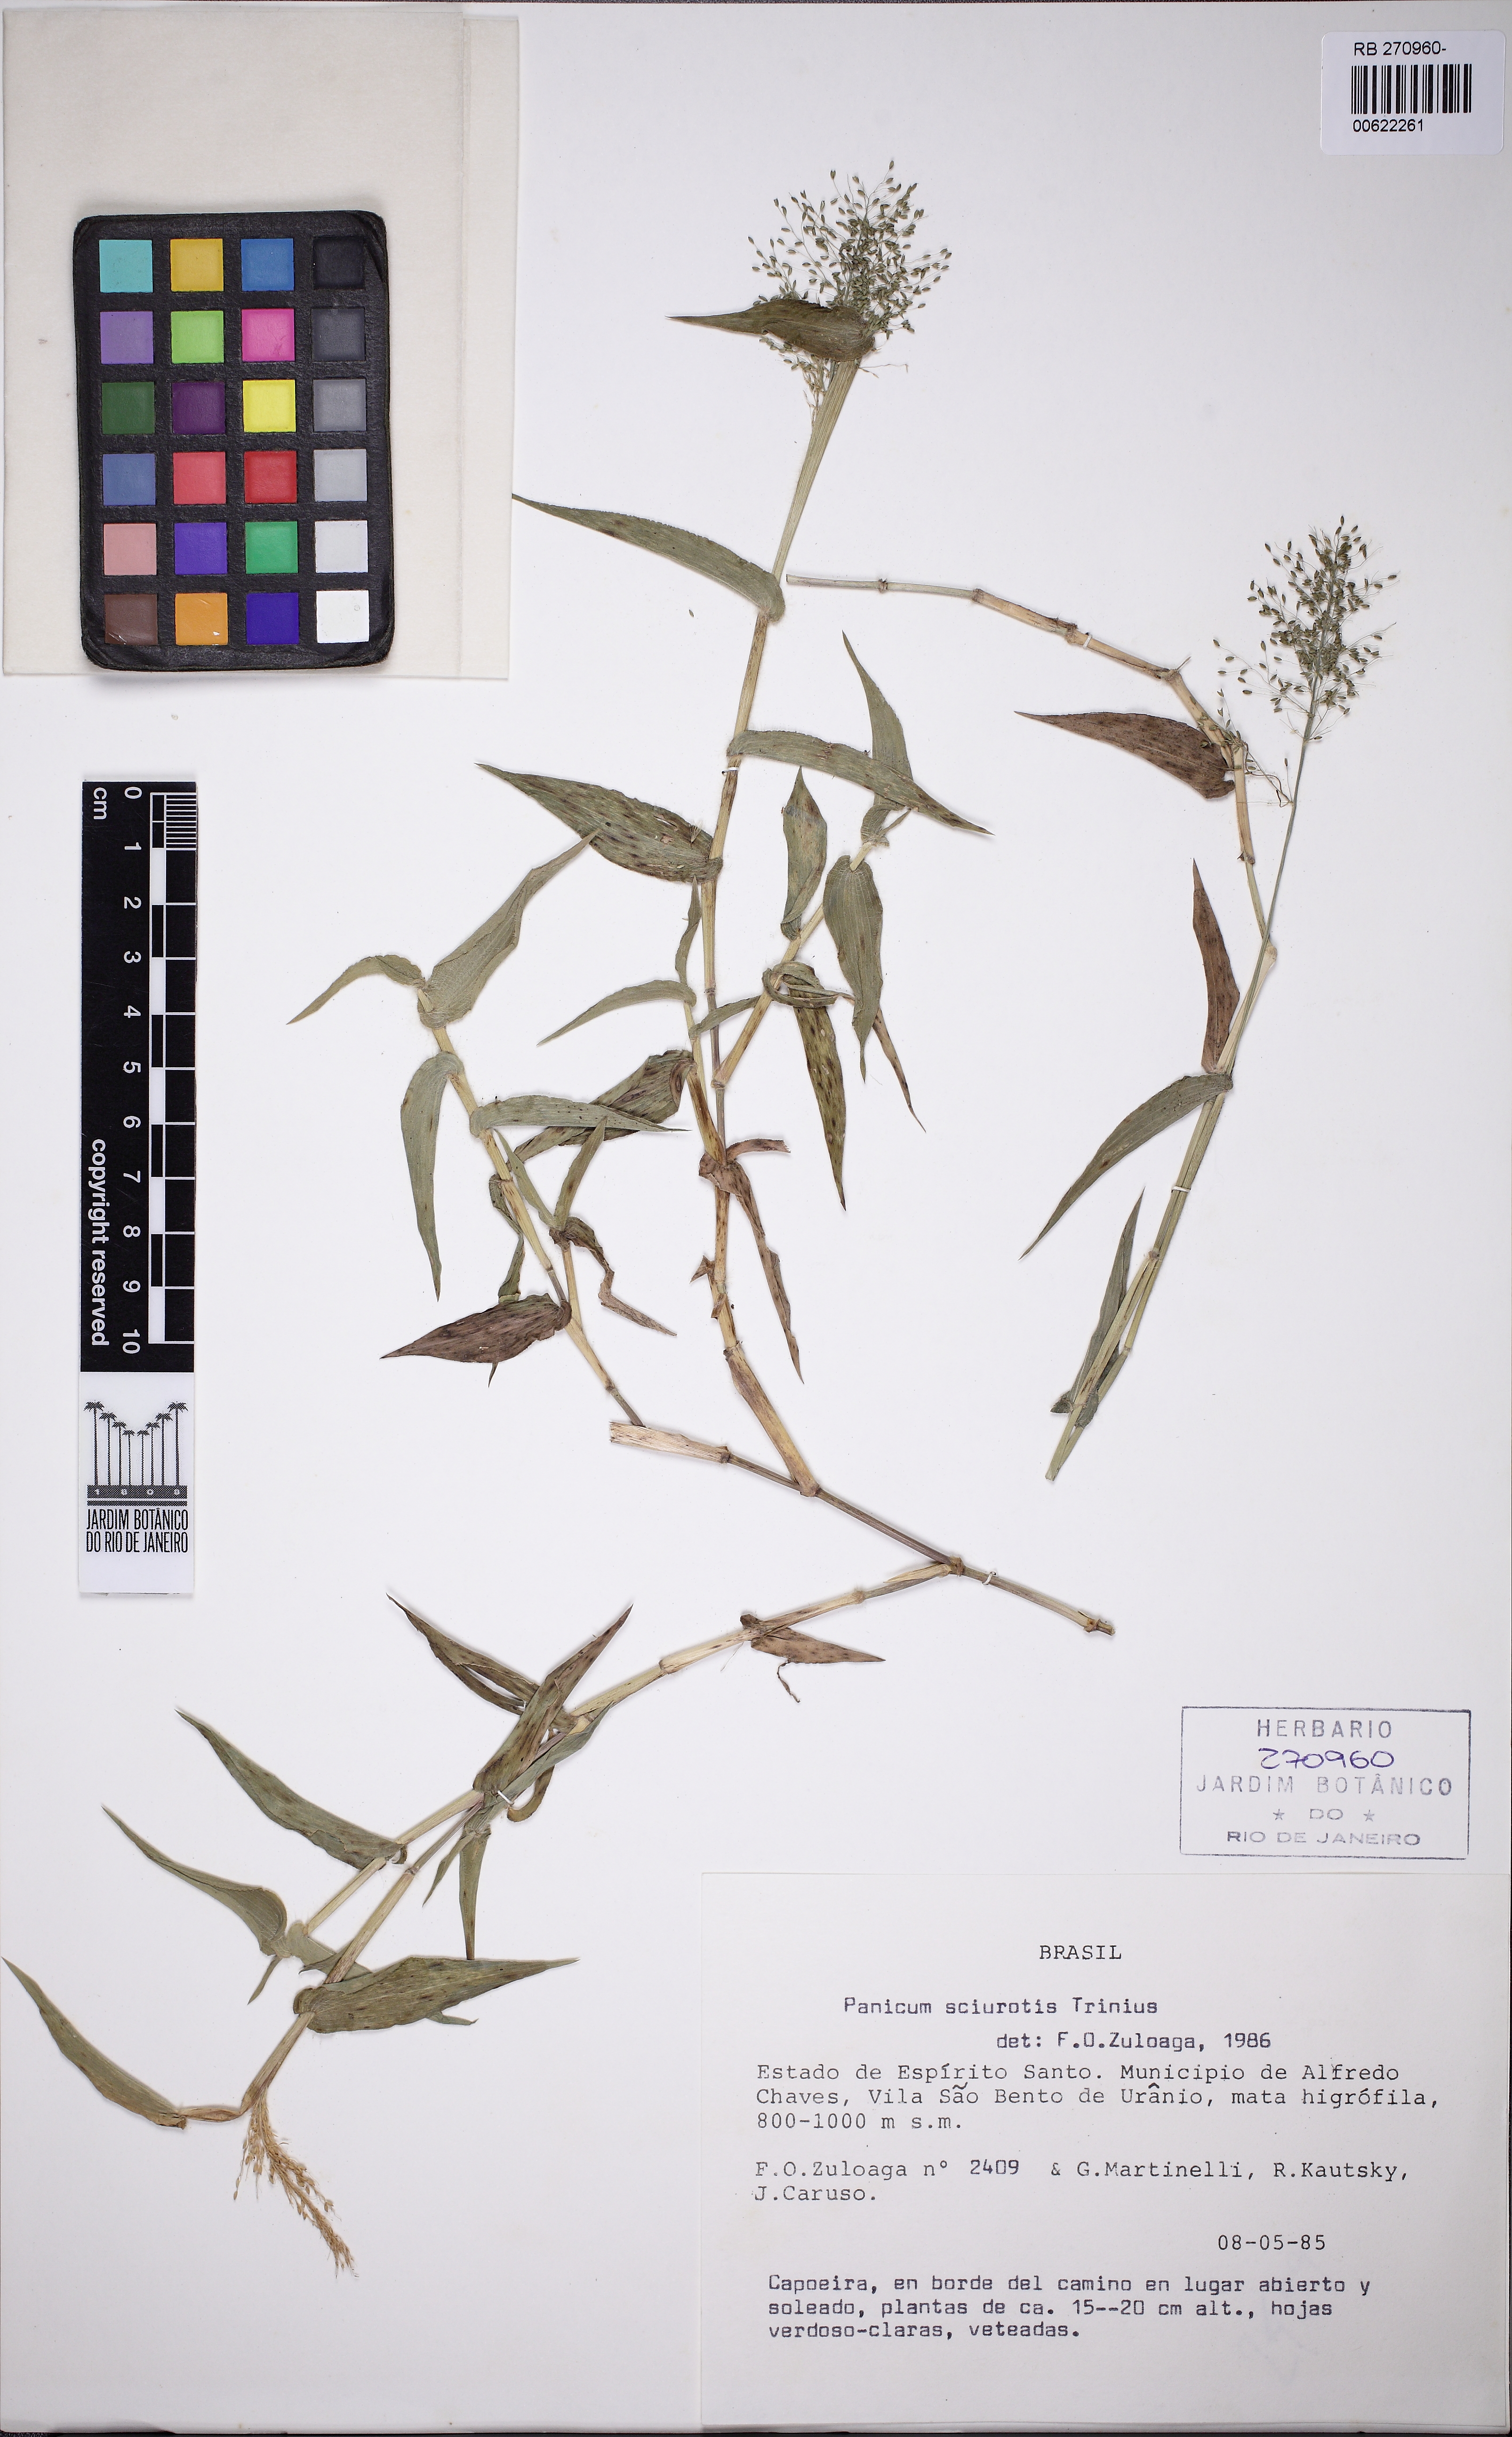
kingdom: Plantae
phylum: Tracheophyta
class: Liliopsida
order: Poales
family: Poaceae
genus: Dichanthelium
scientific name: Dichanthelium sciurotoides
